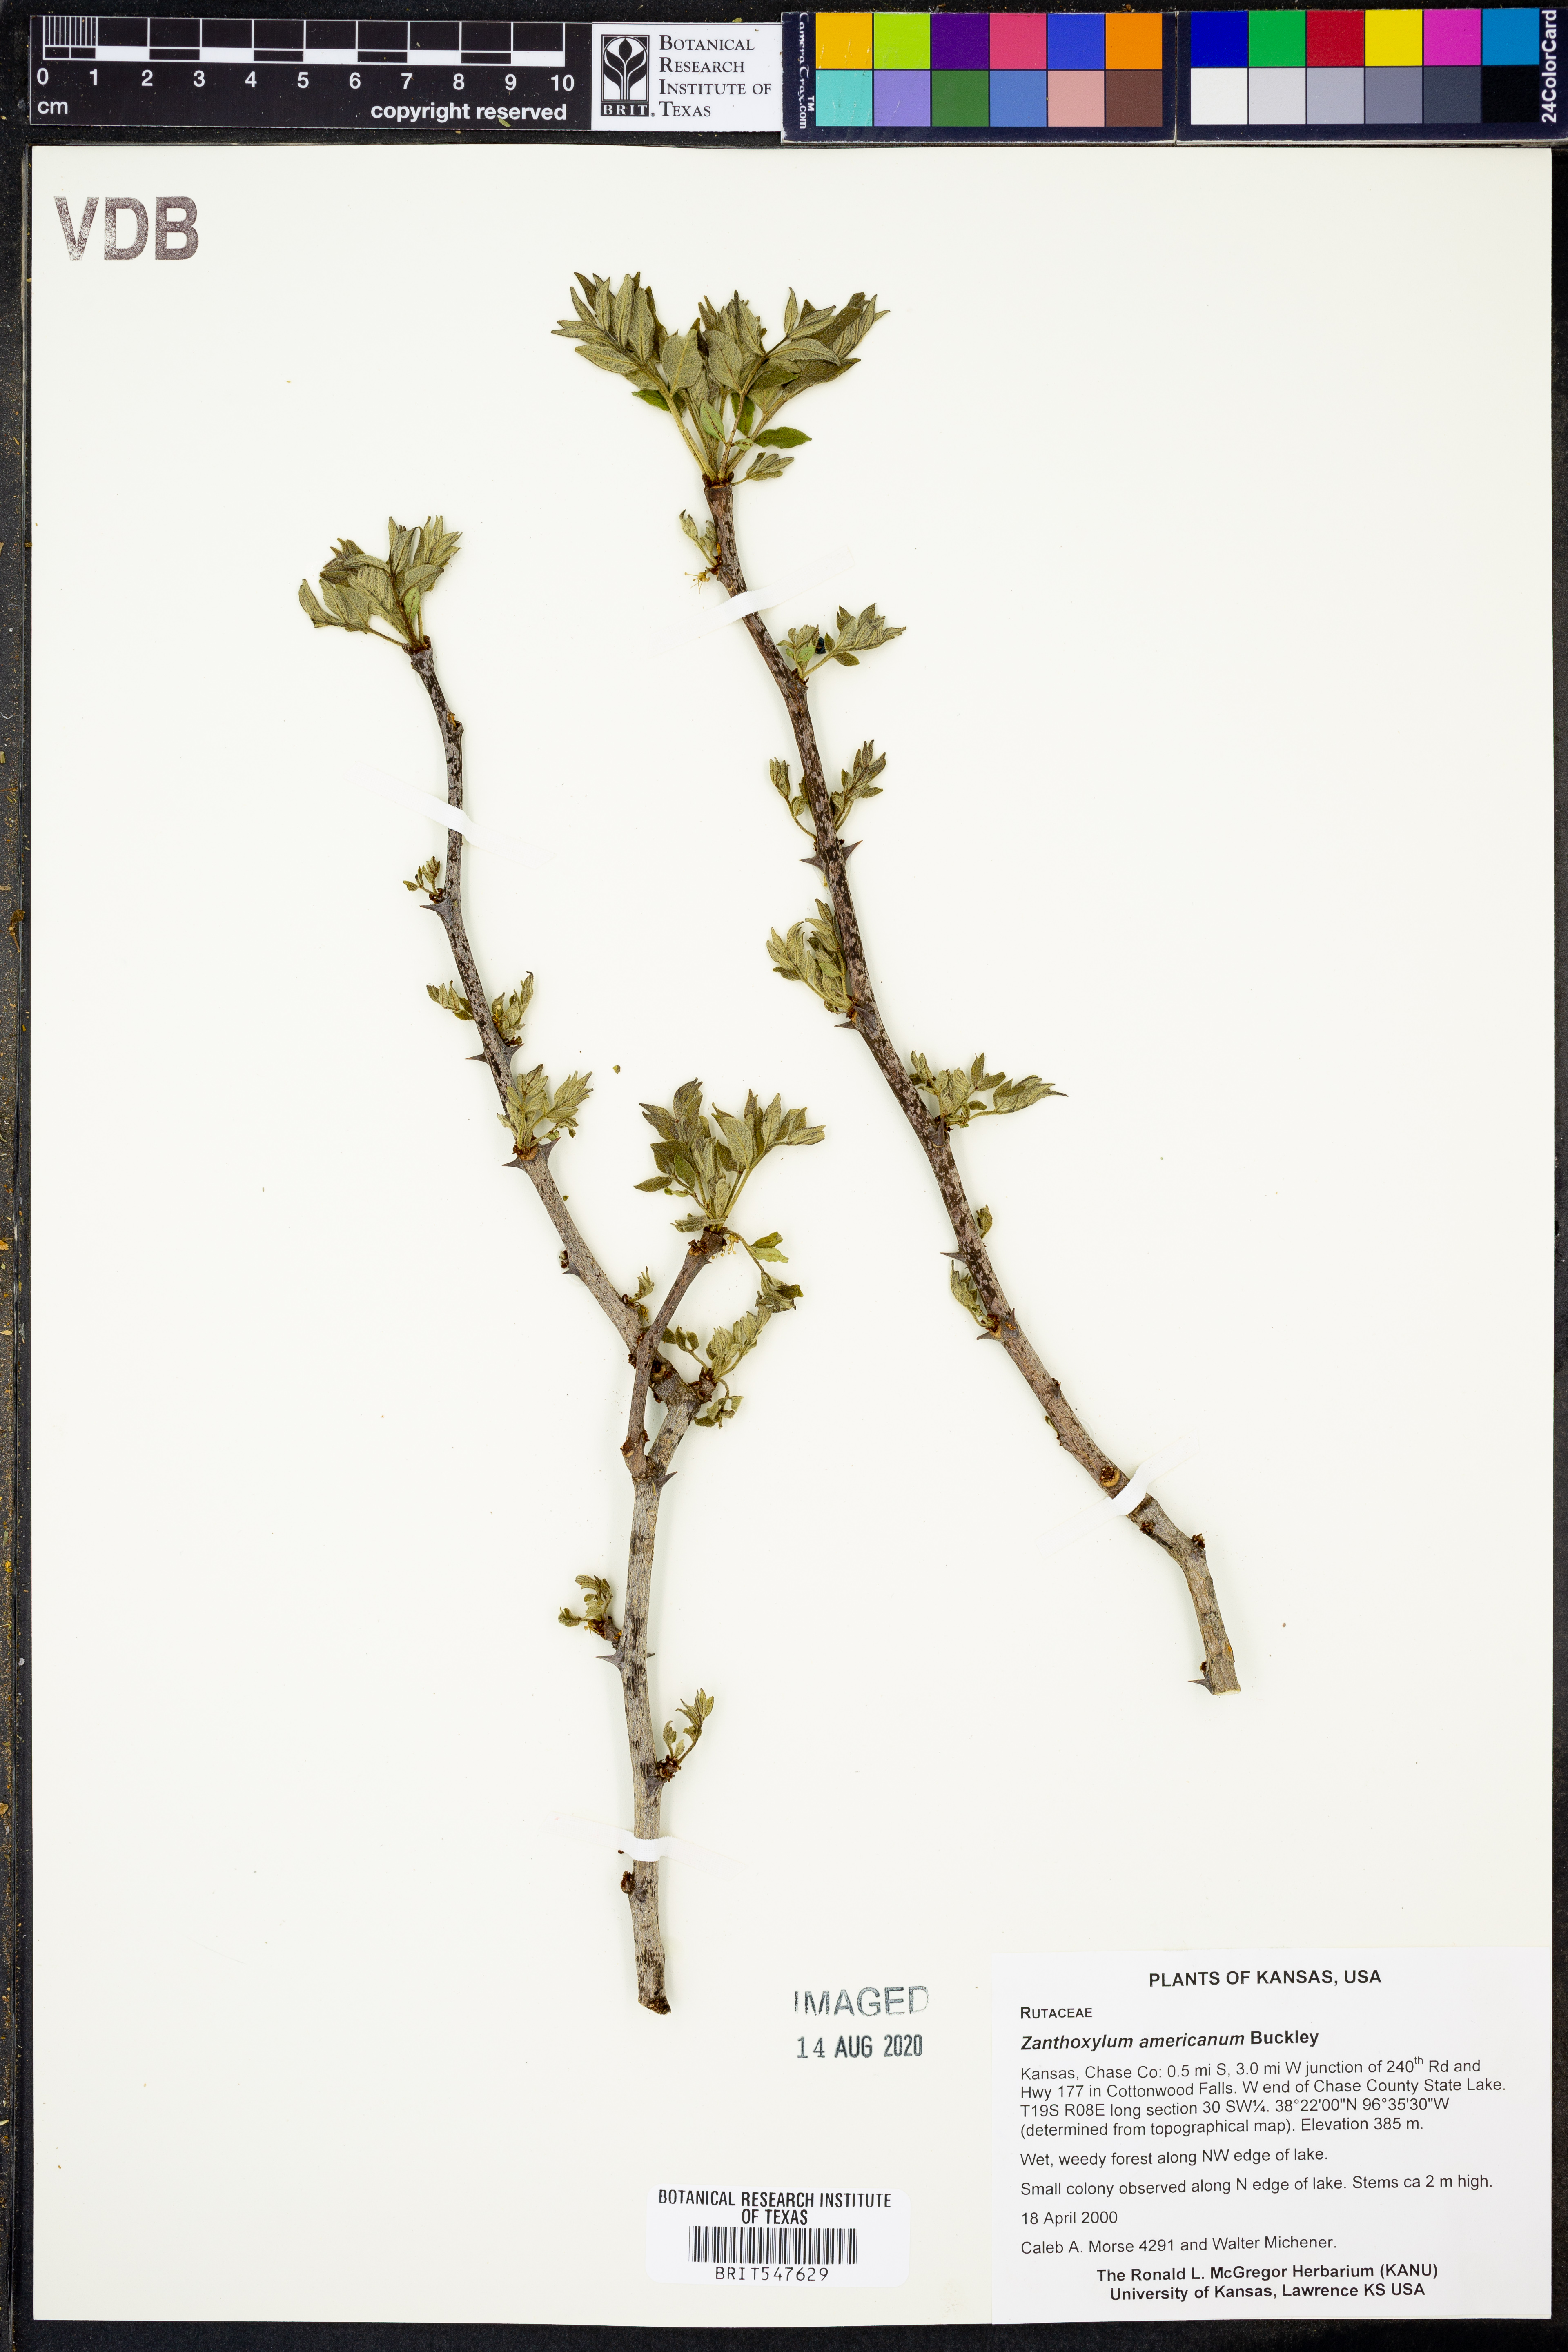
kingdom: Plantae
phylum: Tracheophyta
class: Magnoliopsida
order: Sapindales
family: Rutaceae
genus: Zanthoxylum
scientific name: Zanthoxylum americanum
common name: Northern prickly-ash
